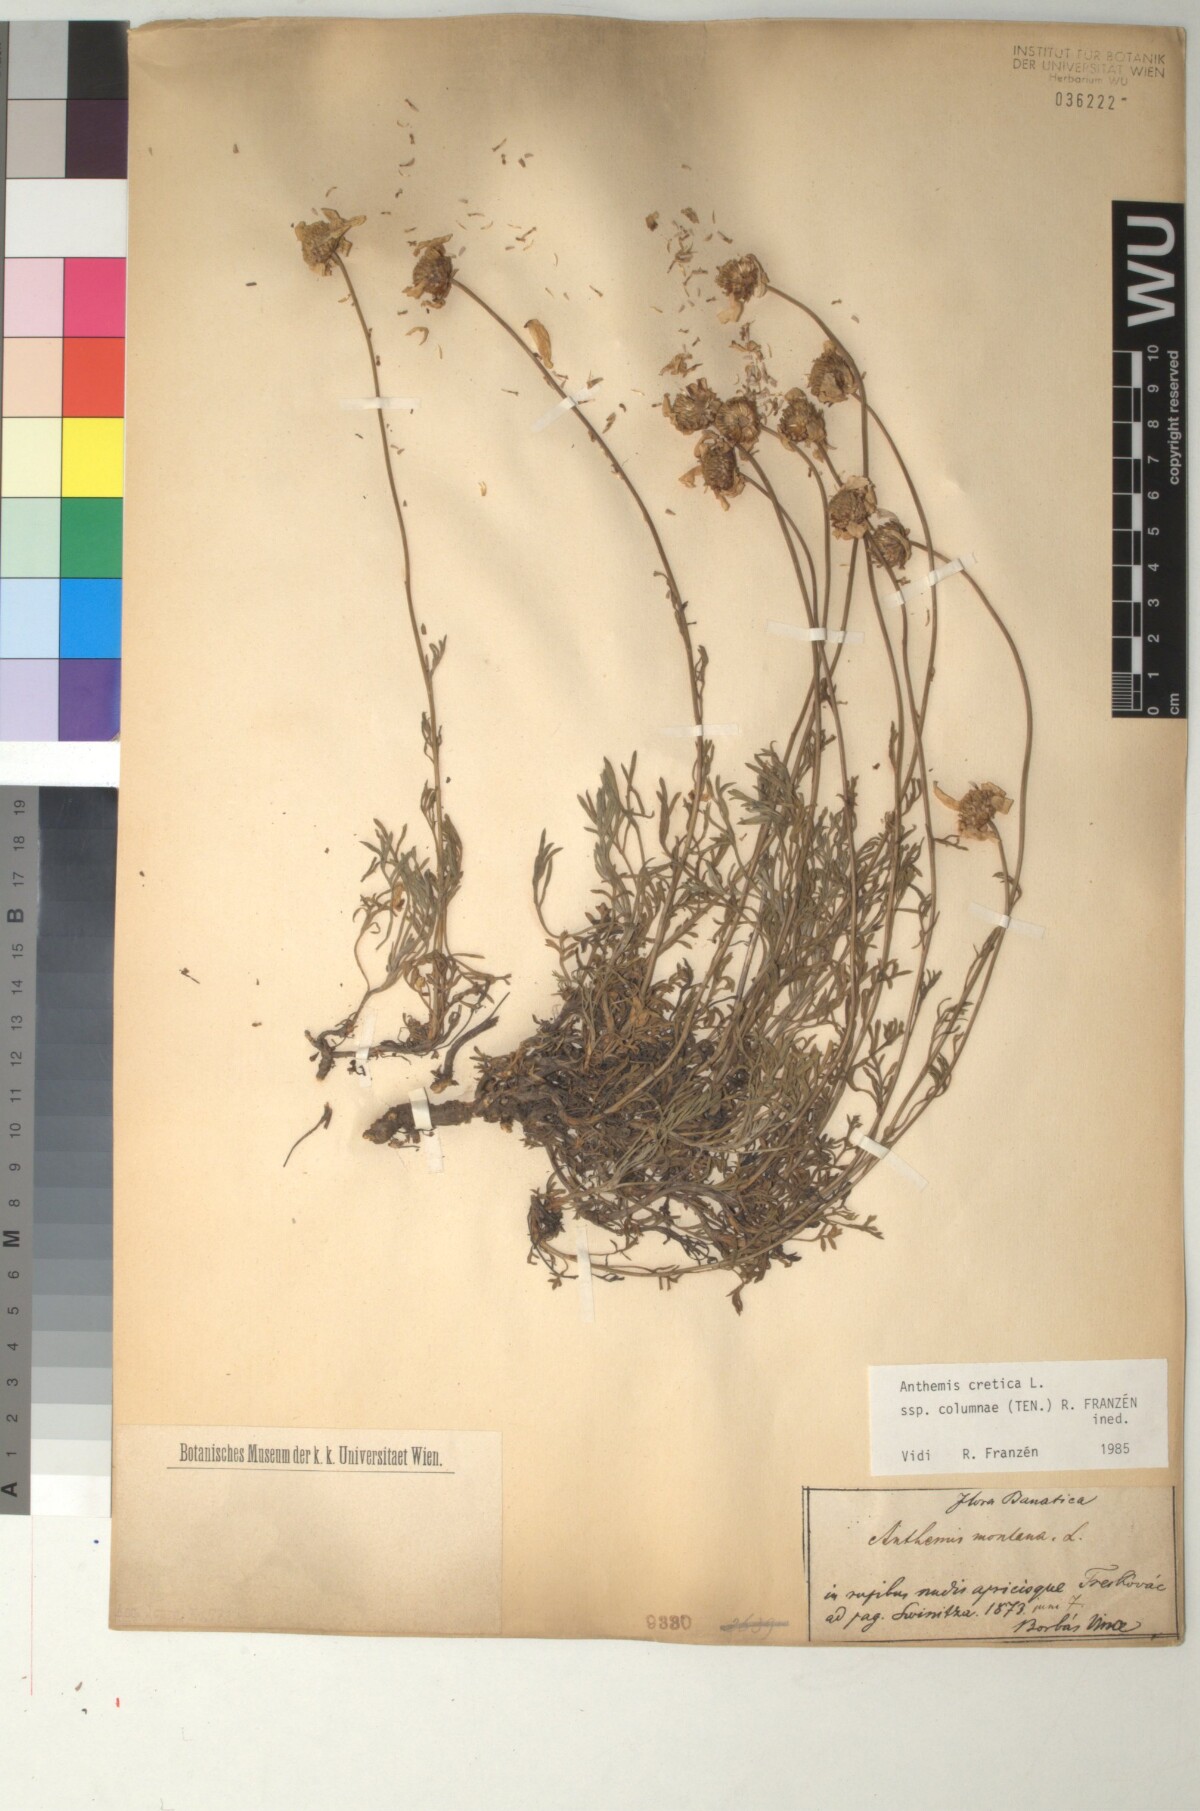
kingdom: Plantae
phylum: Tracheophyta
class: Magnoliopsida
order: Asterales
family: Asteraceae
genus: Anthemis
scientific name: Anthemis cretica
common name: Mountain dog-daisy
